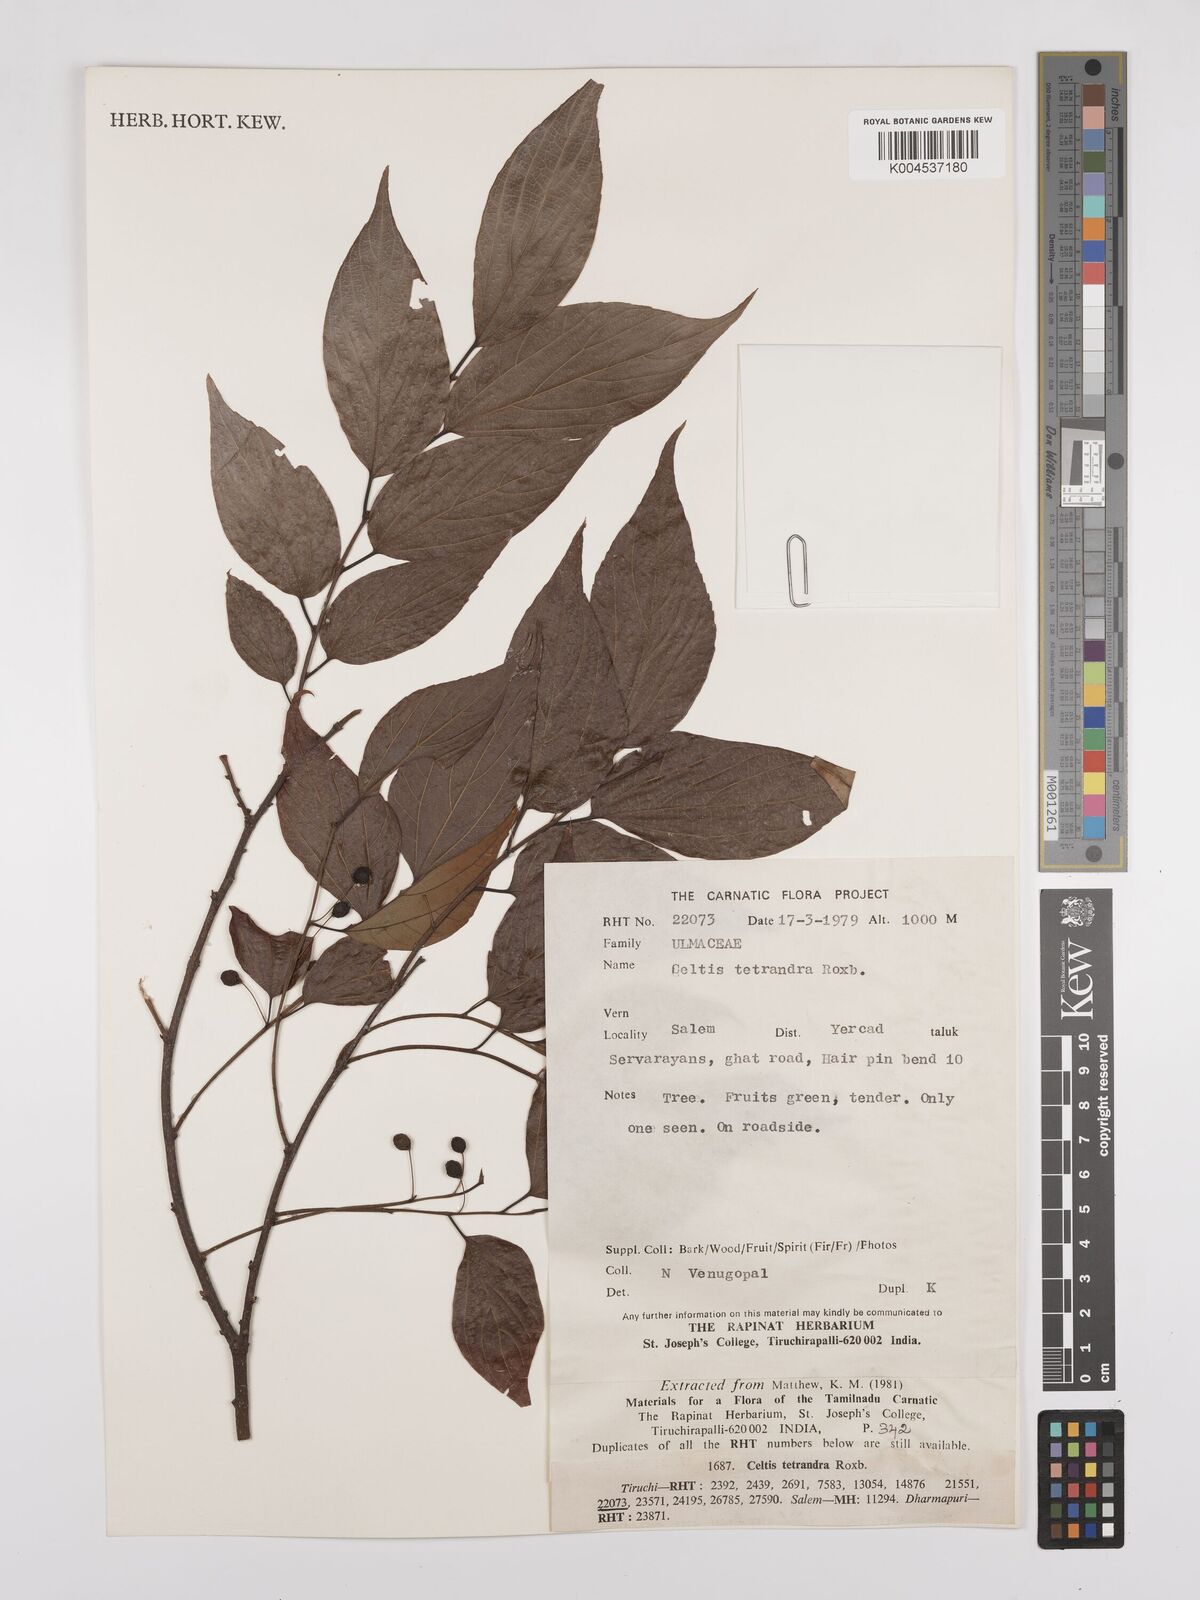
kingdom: Plantae
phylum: Tracheophyta
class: Magnoliopsida
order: Rosales
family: Cannabaceae
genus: Celtis
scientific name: Celtis tetrandra
